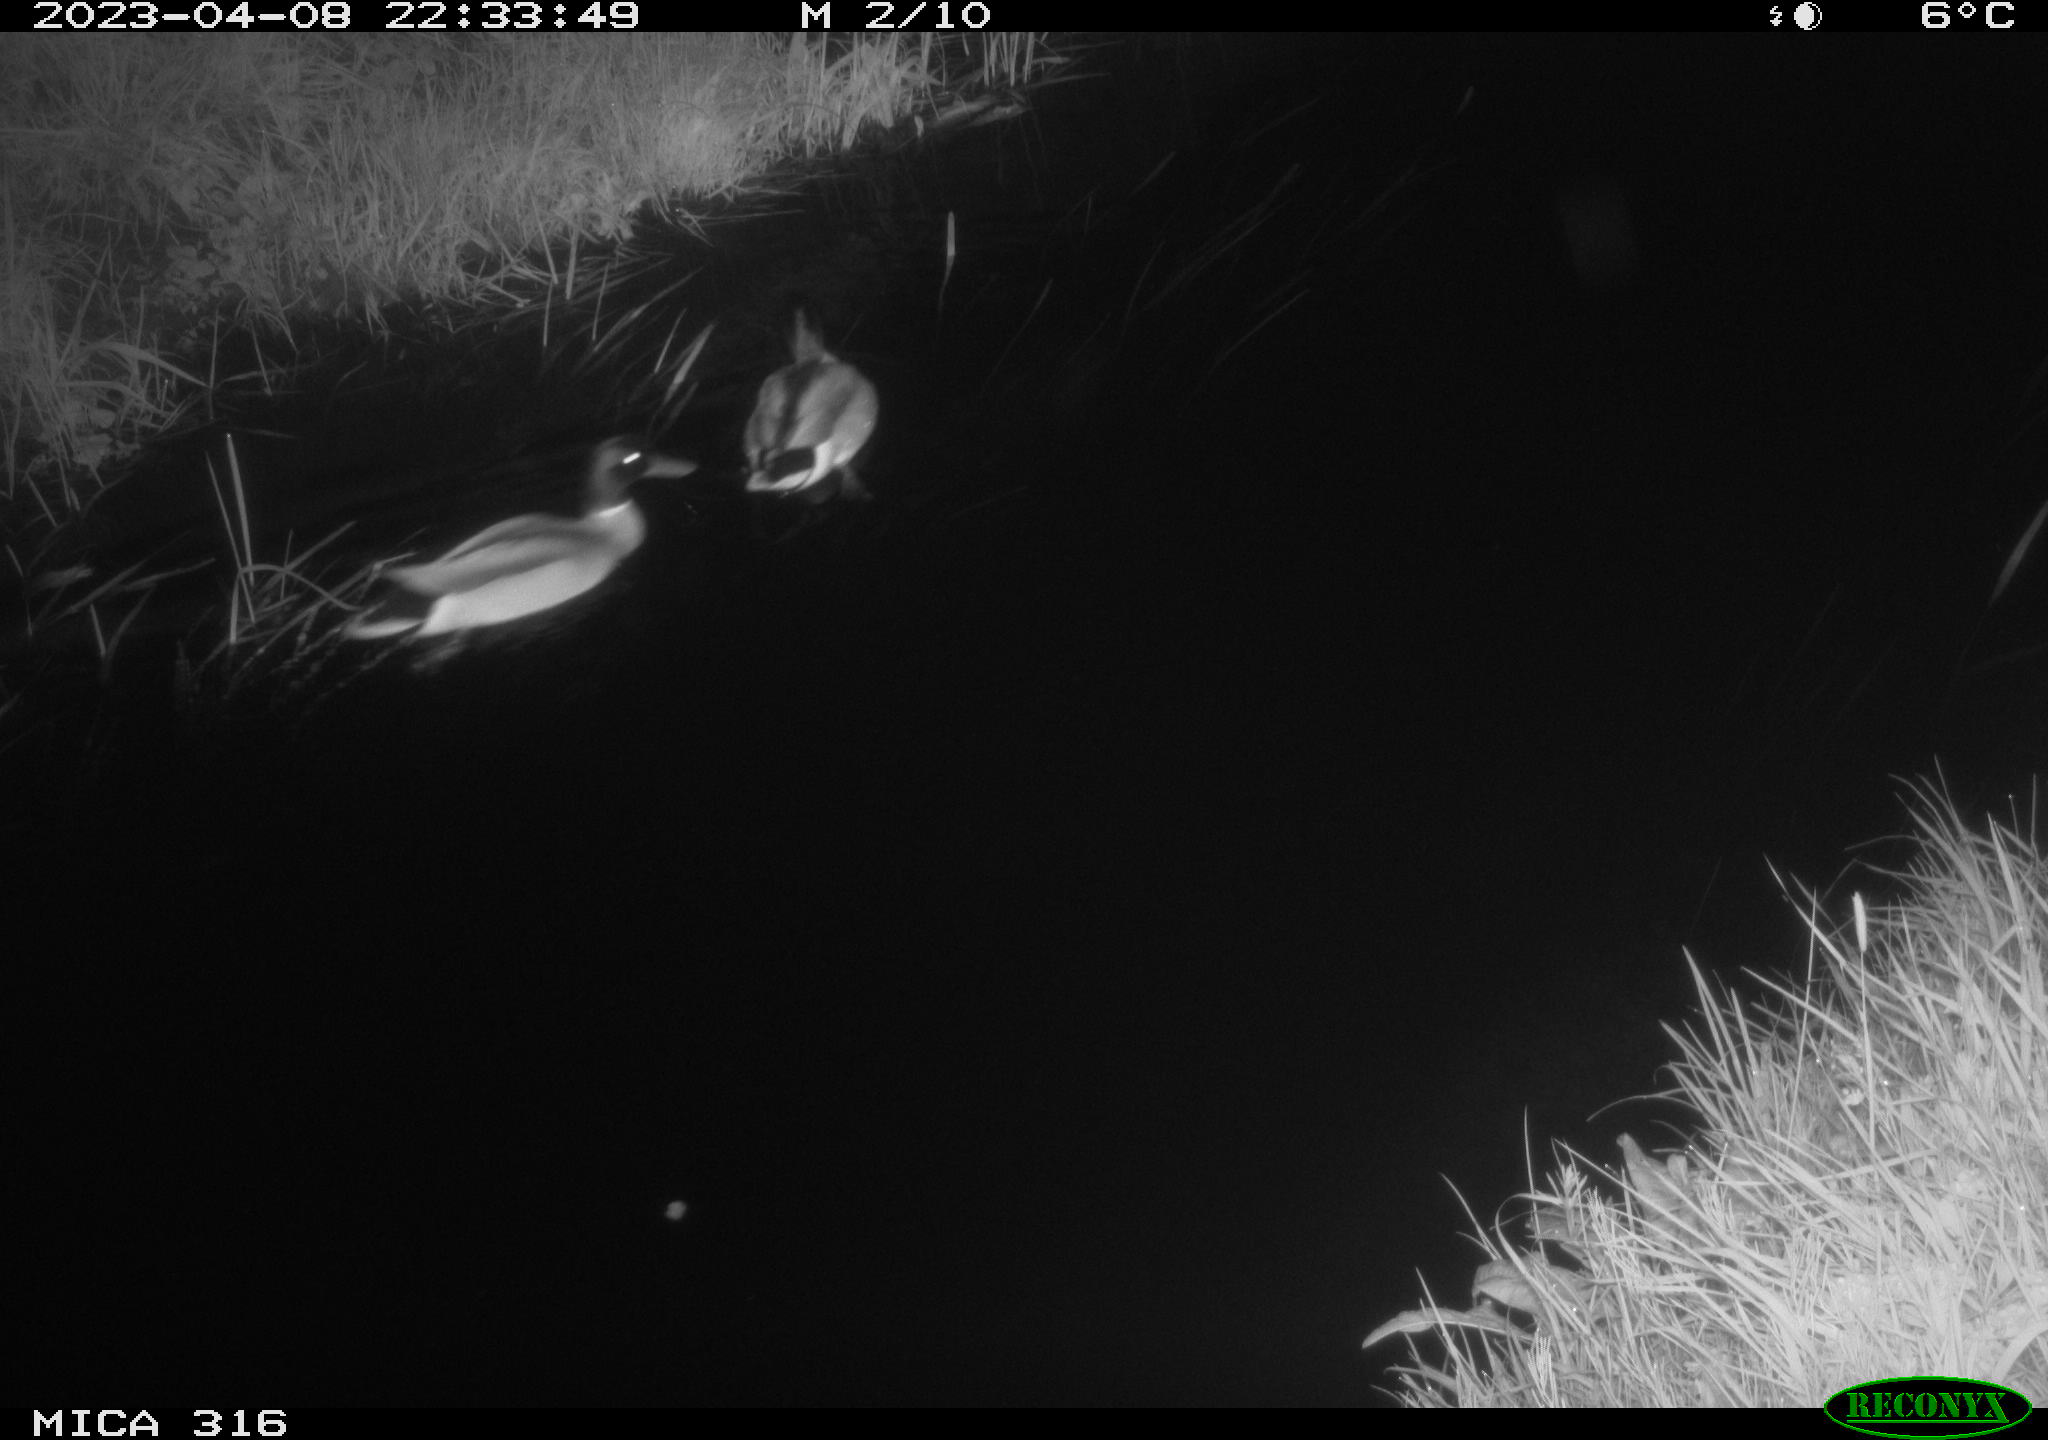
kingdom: Animalia
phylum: Chordata
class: Aves
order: Anseriformes
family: Anatidae
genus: Anas
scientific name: Anas
